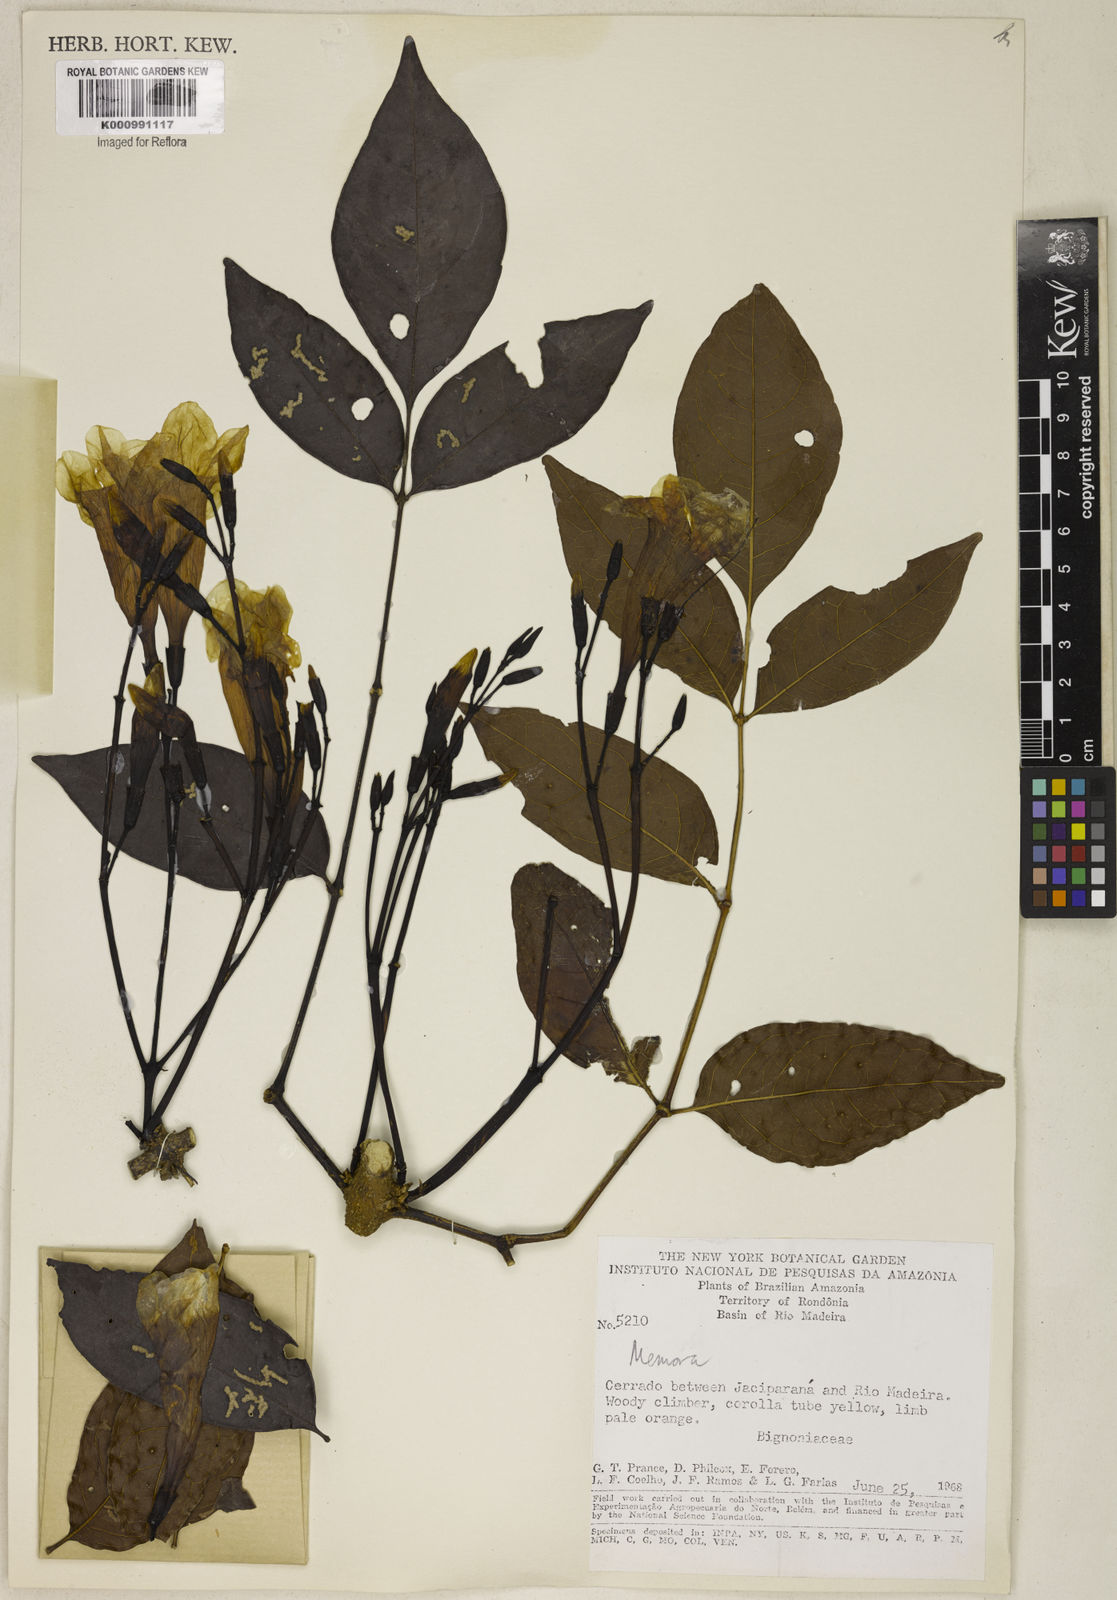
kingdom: Plantae
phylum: Tracheophyta
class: Magnoliopsida
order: Lamiales
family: Bignoniaceae
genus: Adenocalymma
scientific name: Adenocalymma
